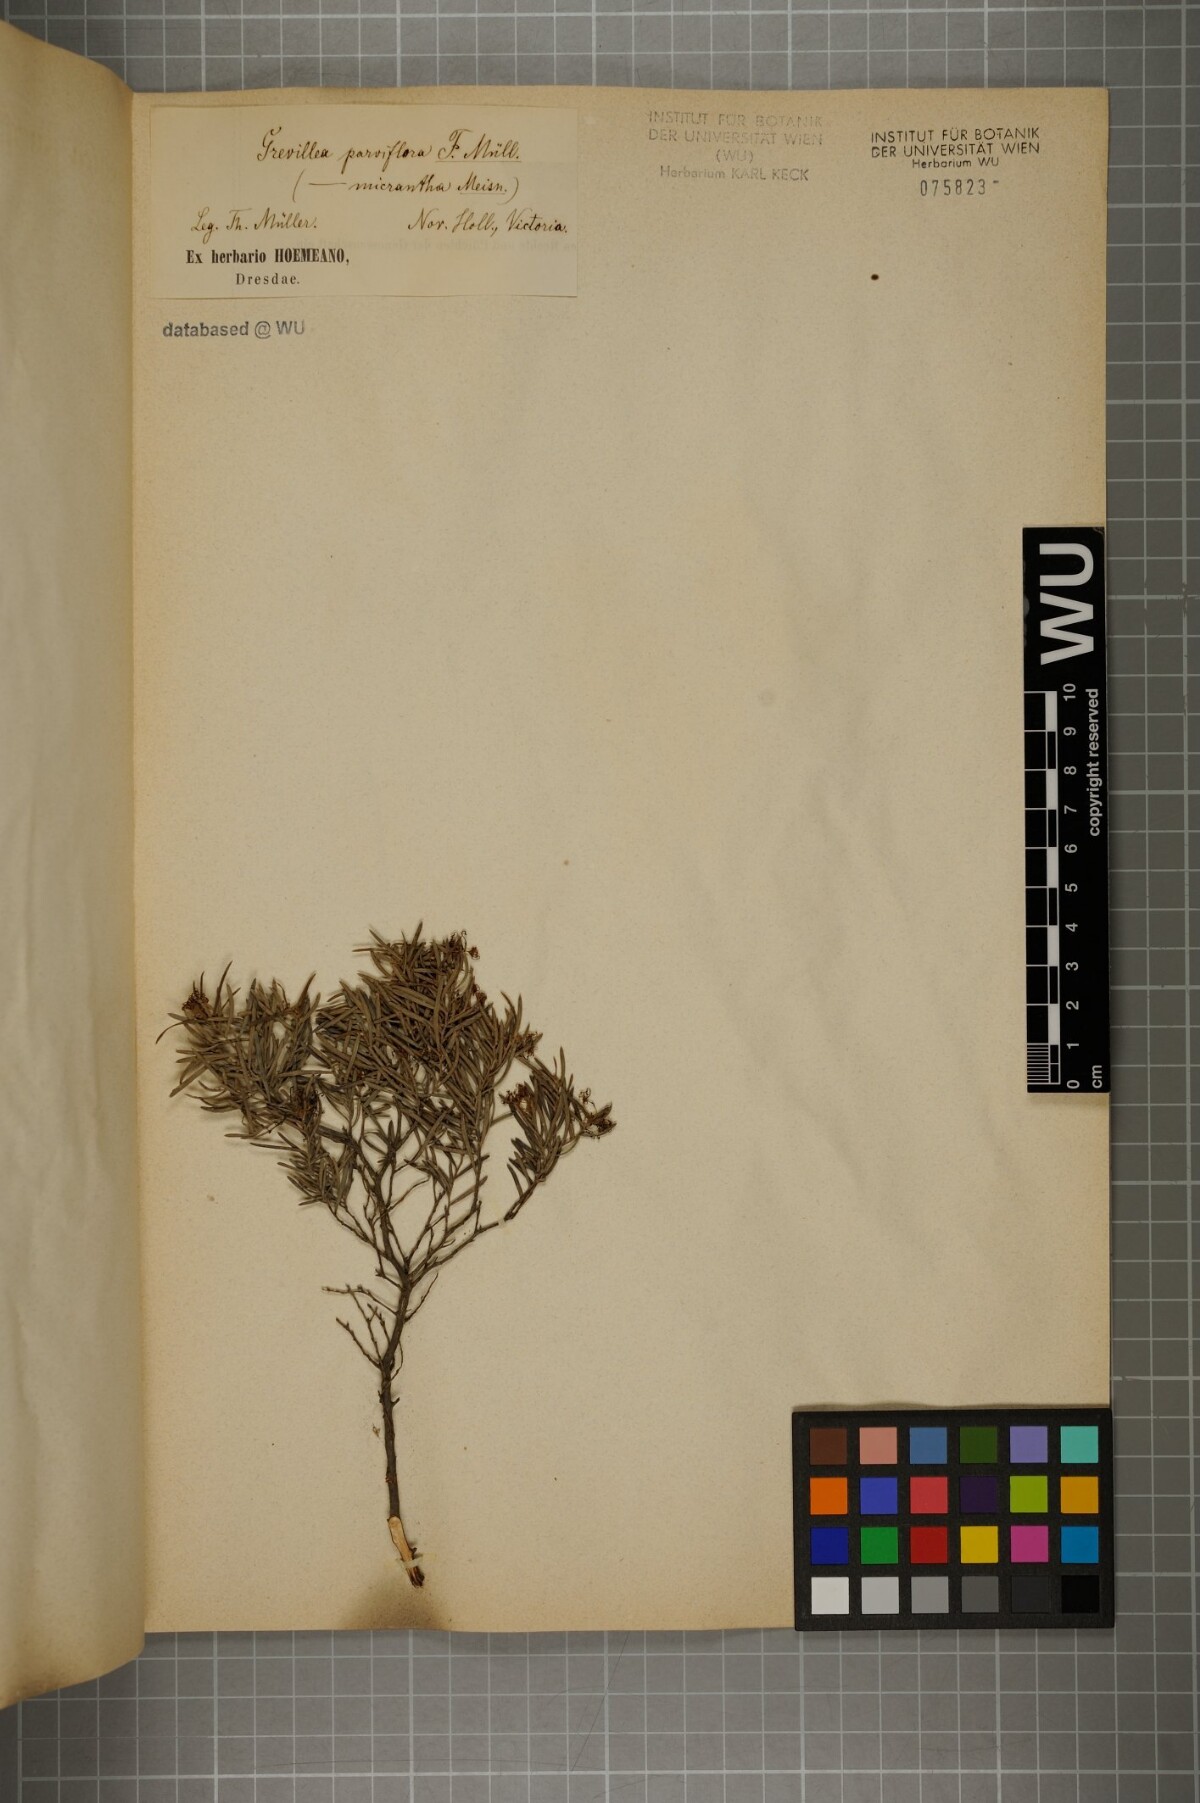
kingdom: Plantae
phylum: Tracheophyta
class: Magnoliopsida
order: Proteales
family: Proteaceae
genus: Grevillea
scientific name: Grevillea parviflora
